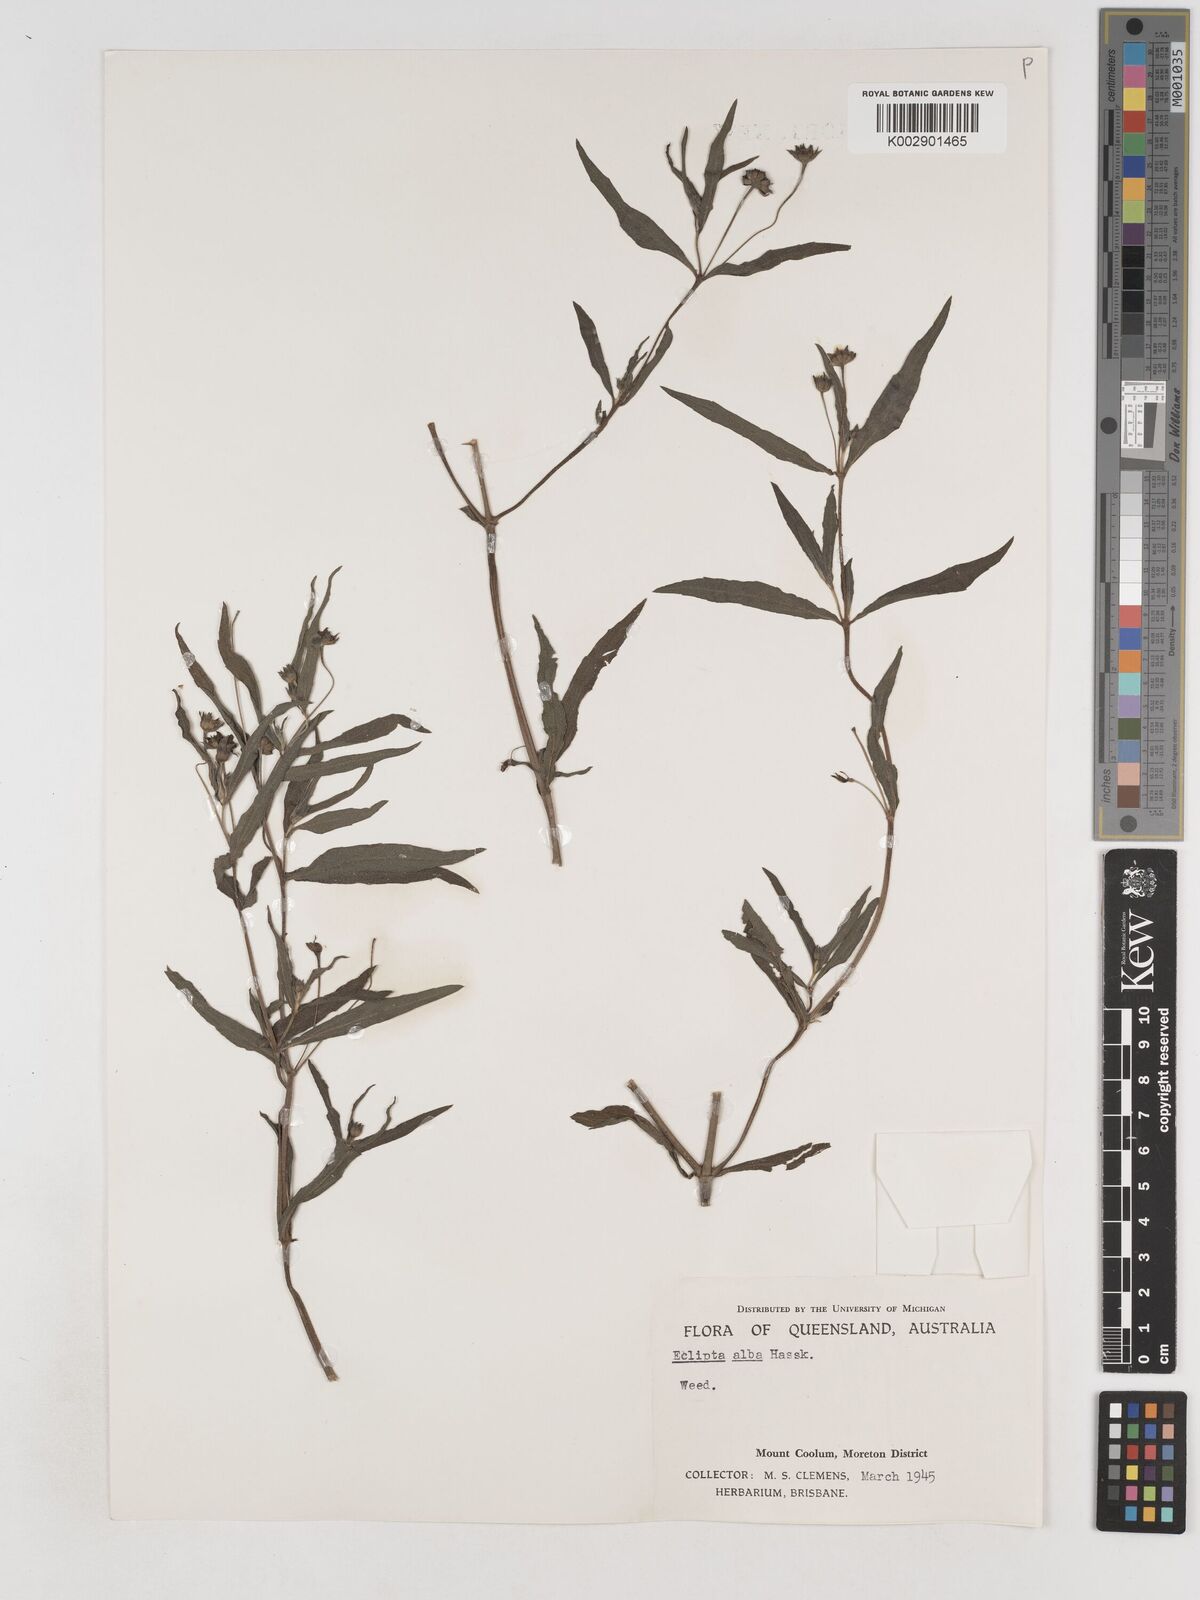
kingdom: Plantae
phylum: Tracheophyta
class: Magnoliopsida
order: Asterales
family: Asteraceae
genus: Eclipta
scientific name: Eclipta alba
